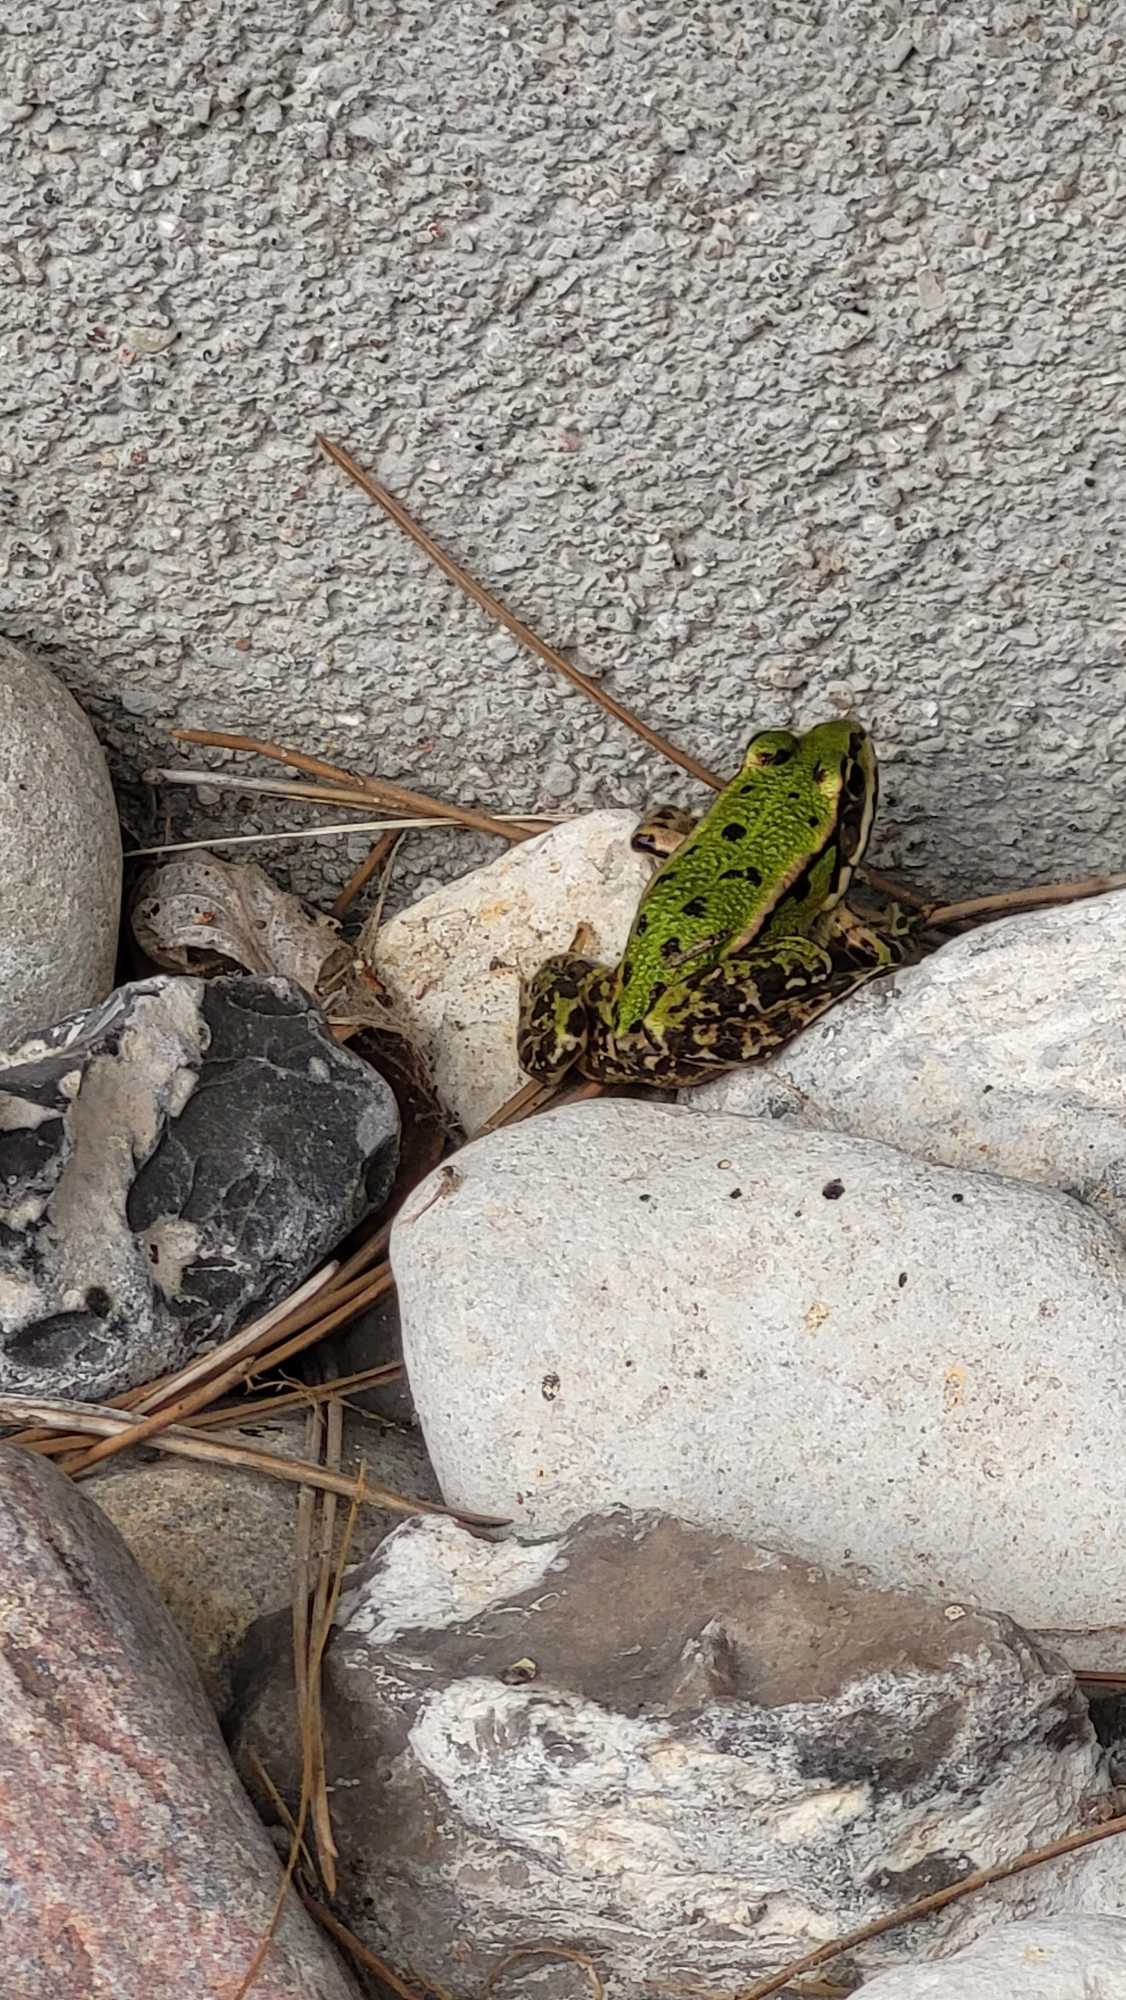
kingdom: Animalia
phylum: Chordata
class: Amphibia
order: Anura
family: Ranidae
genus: Pelophylax
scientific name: Pelophylax lessonae
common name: Grøn frø
